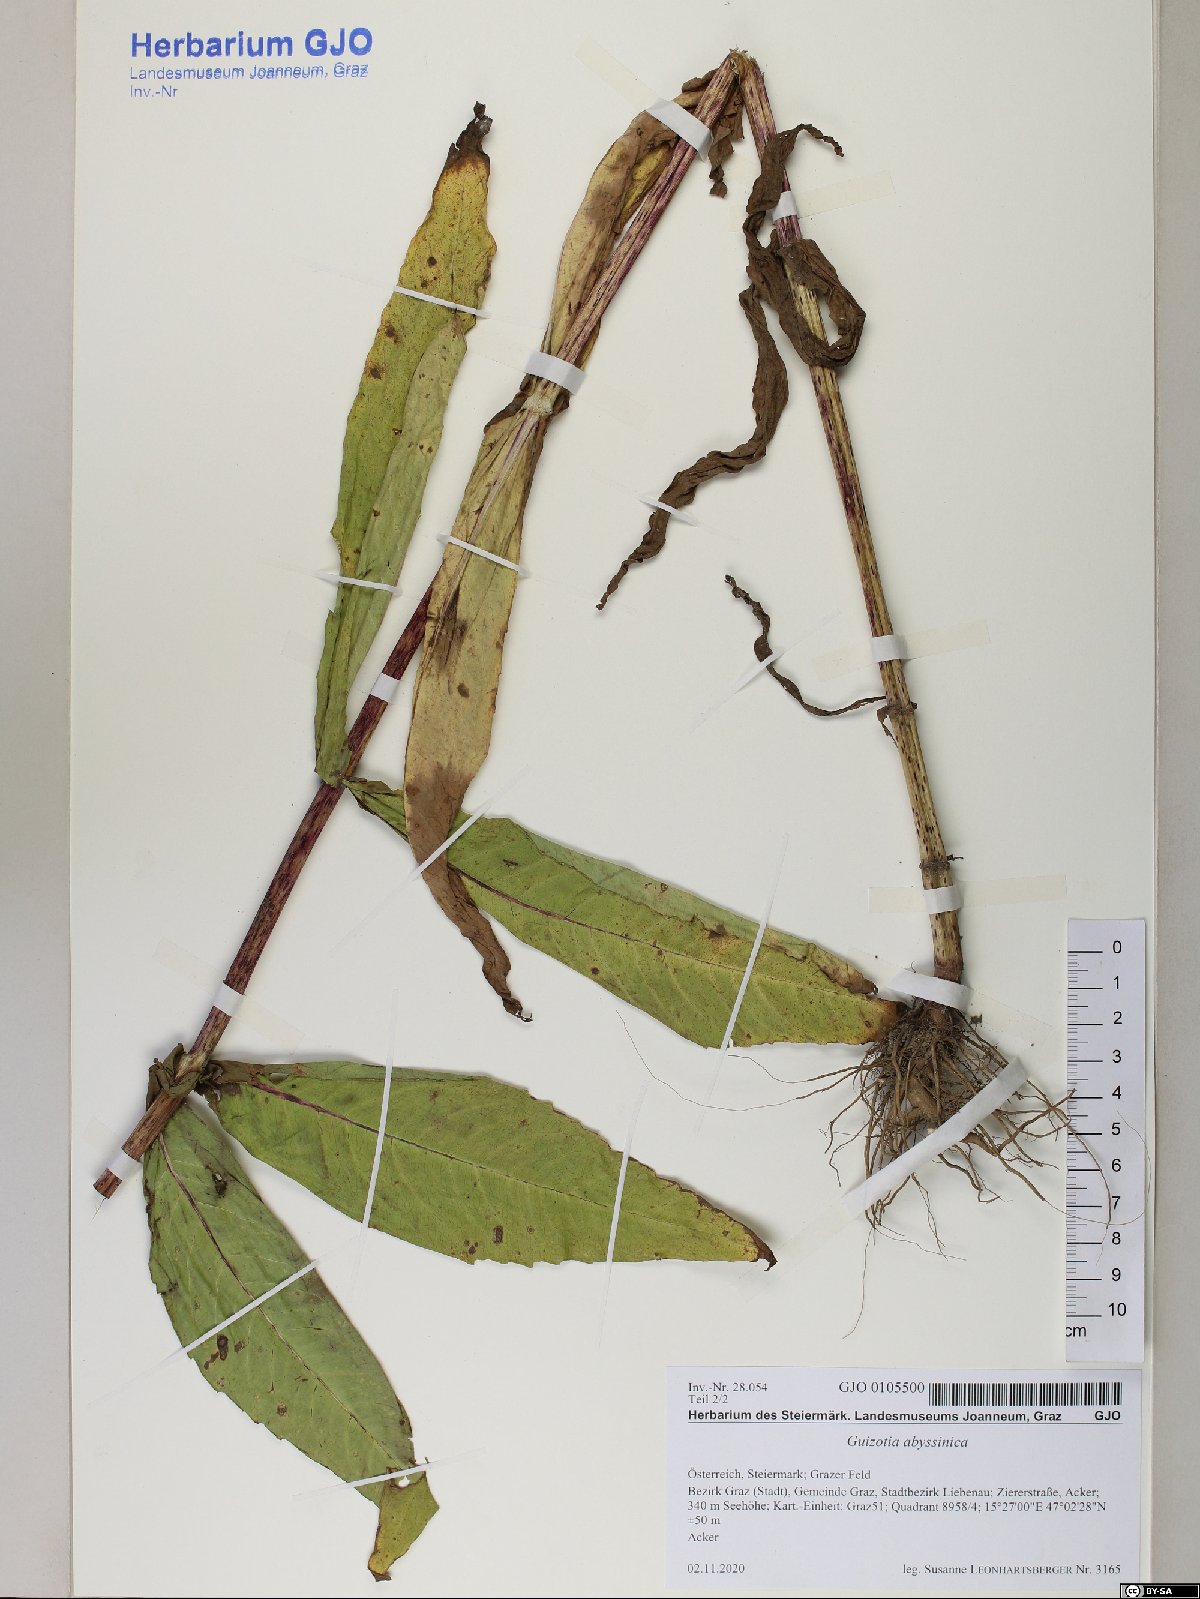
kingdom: Plantae
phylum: Tracheophyta
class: Magnoliopsida
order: Asterales
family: Asteraceae
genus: Guizotia
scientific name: Guizotia abyssinica
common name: Niger
